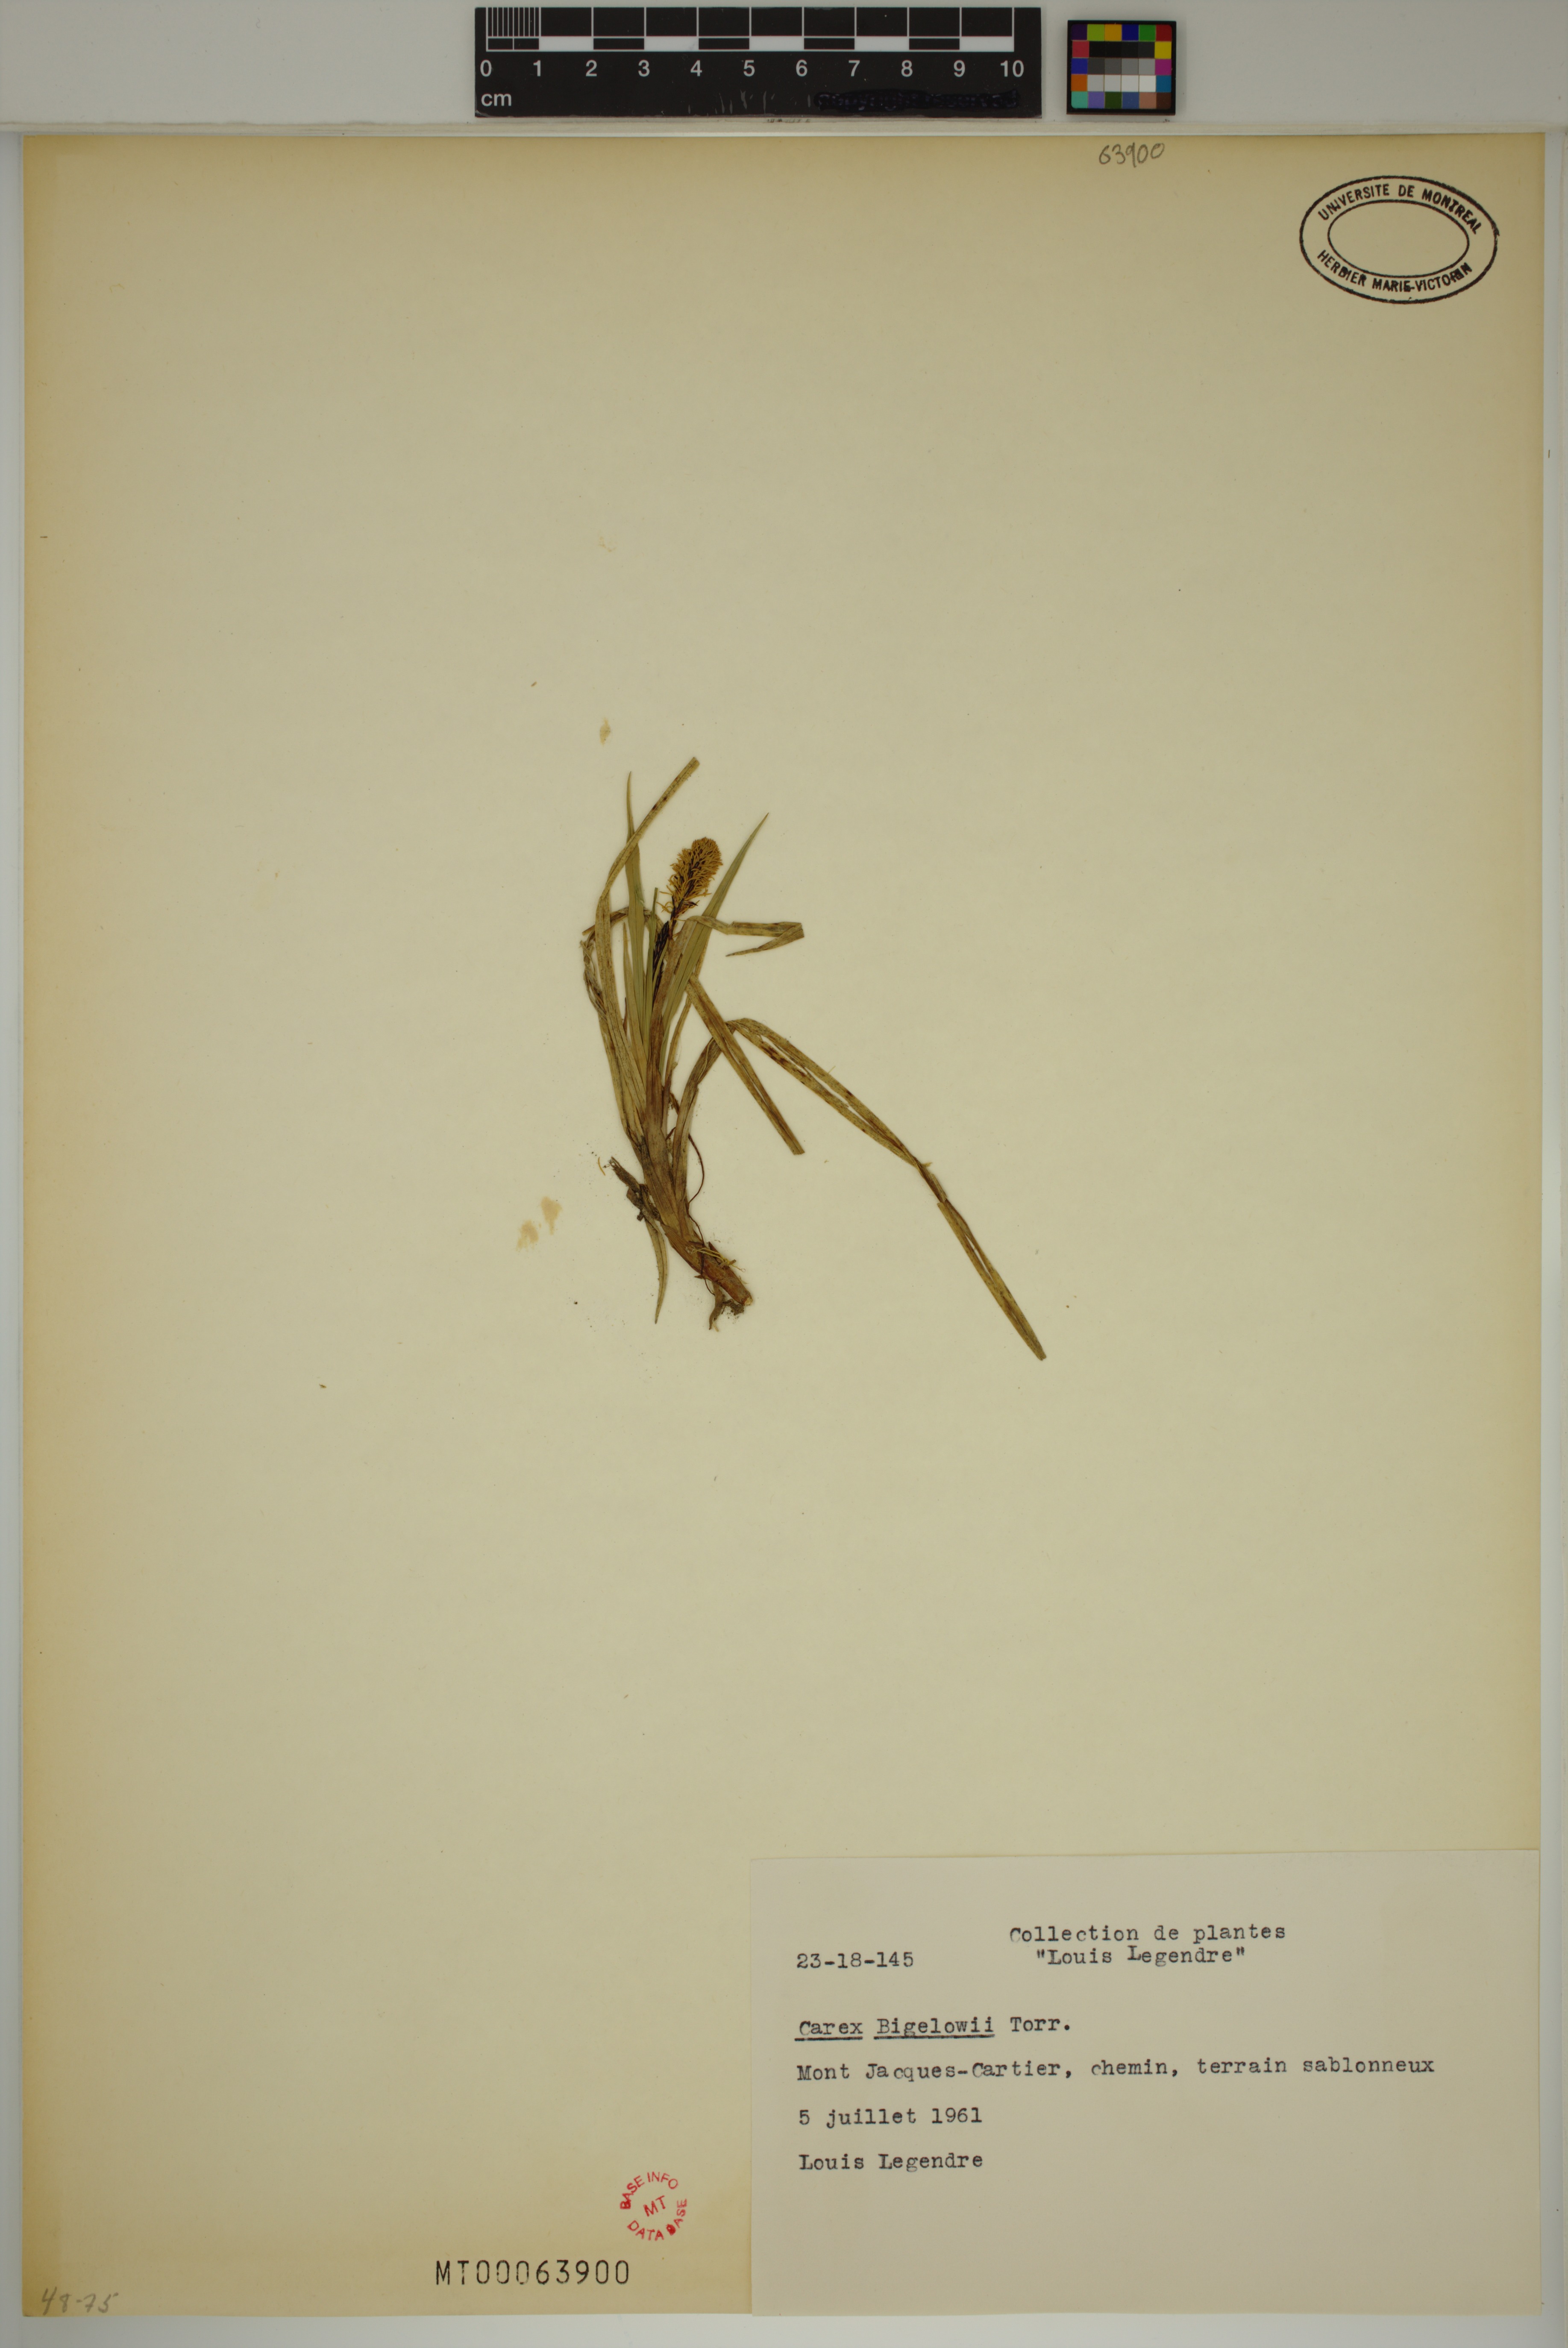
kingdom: Plantae
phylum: Tracheophyta
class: Liliopsida
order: Poales
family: Cyperaceae
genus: Carex
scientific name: Carex bigelowii
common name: Stiff sedge
